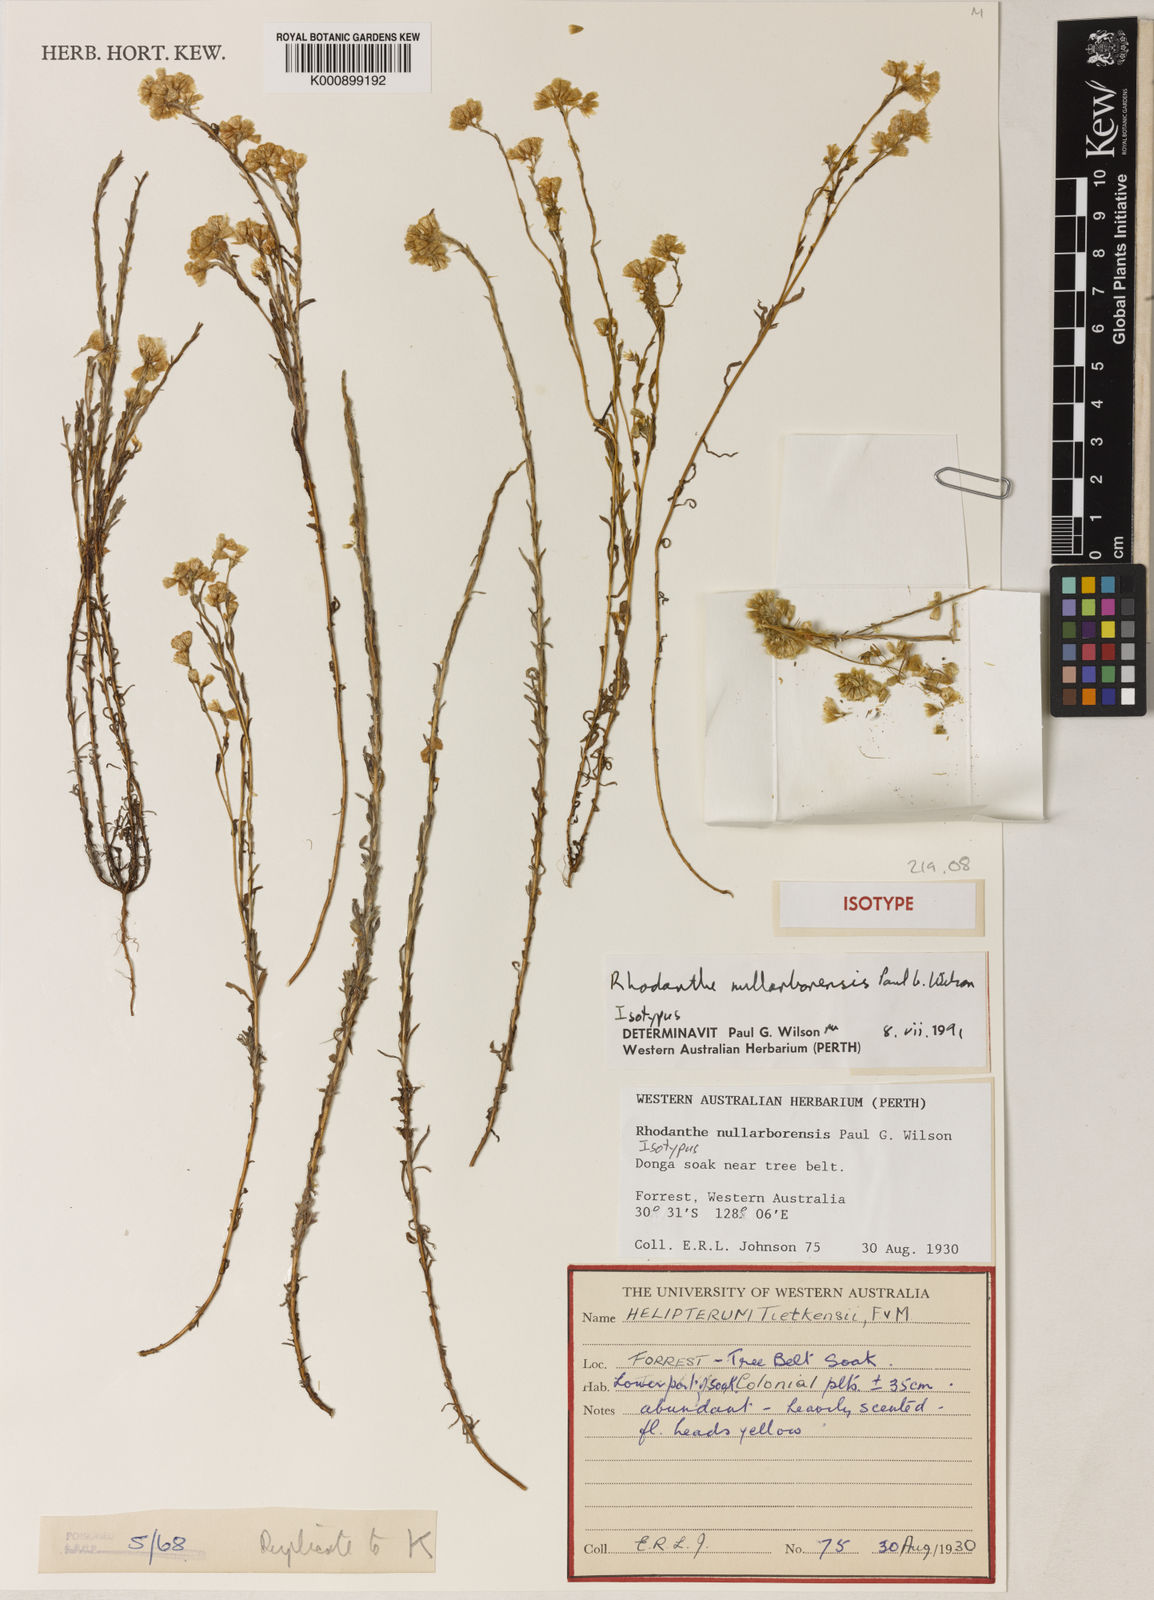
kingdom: Plantae
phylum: Tracheophyta
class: Magnoliopsida
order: Asterales
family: Asteraceae
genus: Rhodanthe
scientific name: Rhodanthe nullarborensis
